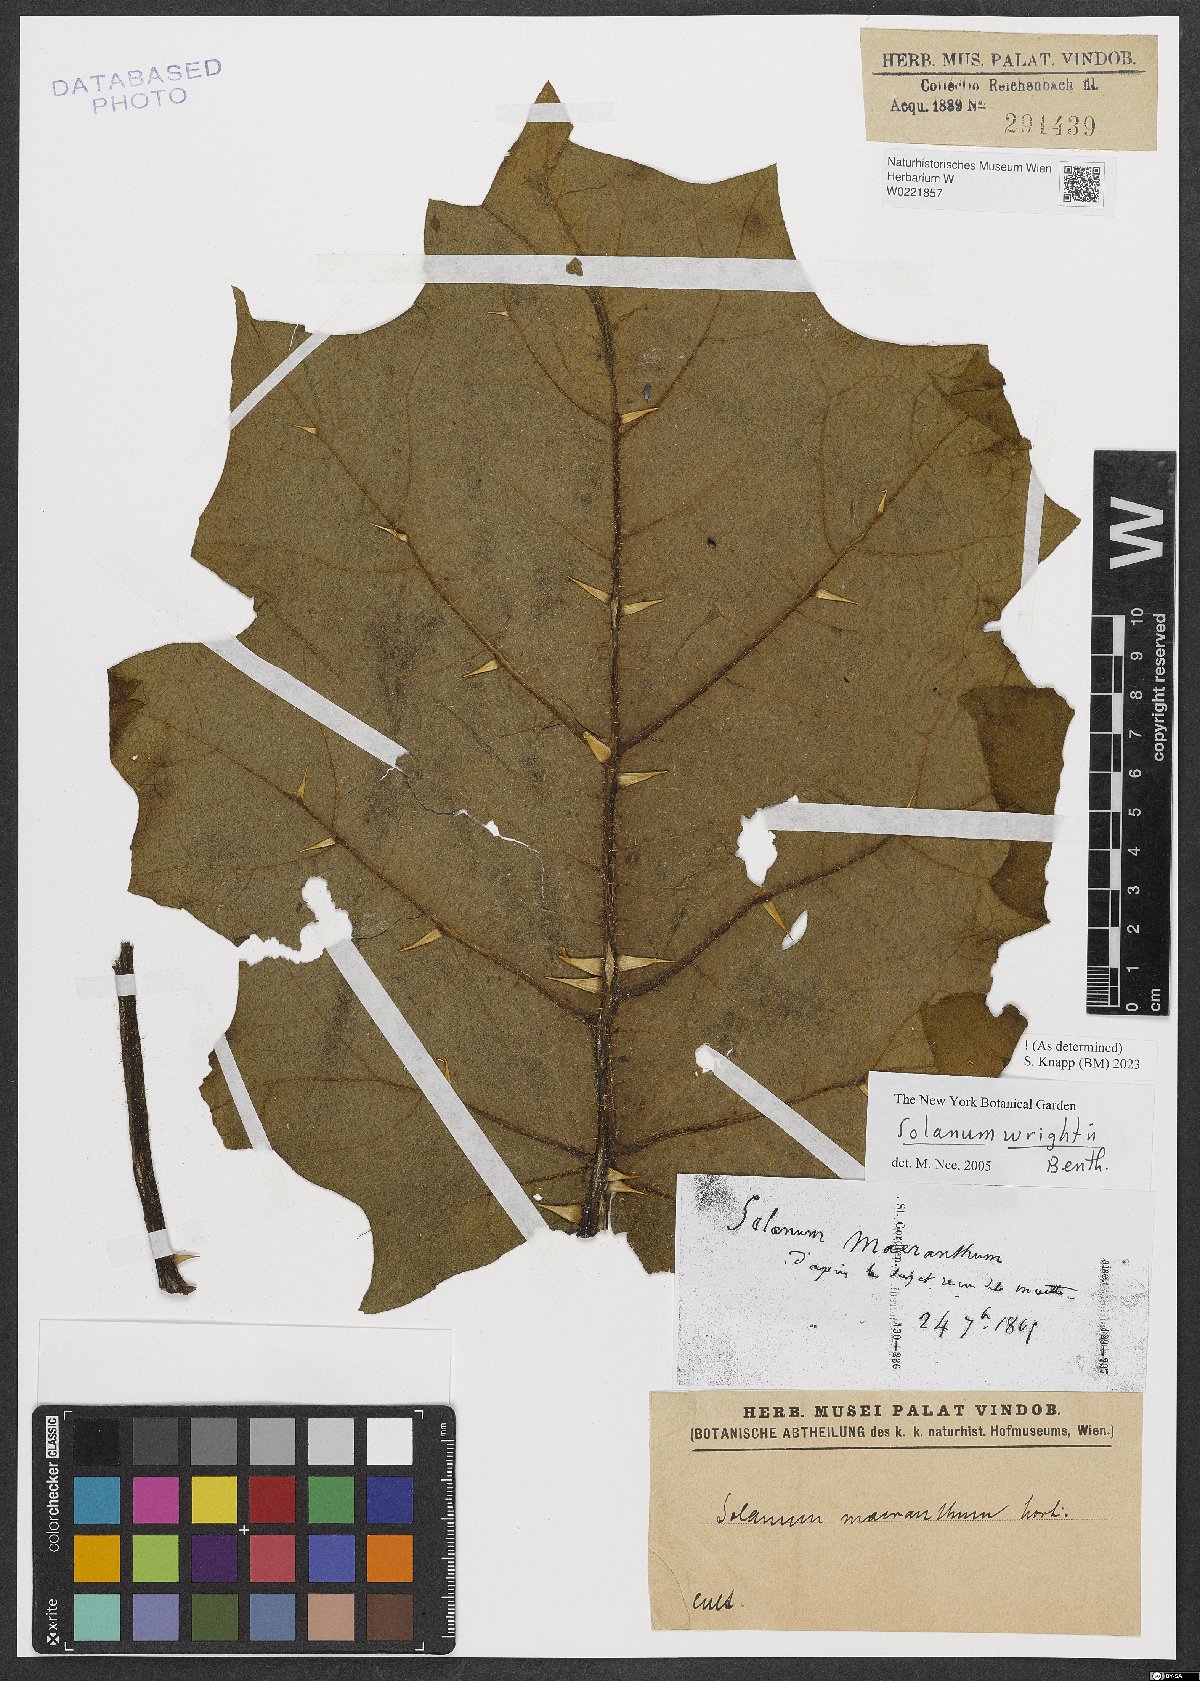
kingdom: Plantae
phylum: Tracheophyta
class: Magnoliopsida
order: Solanales
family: Solanaceae
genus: Solanum
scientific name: Solanum wrightii
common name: Brazilian potato-tree
